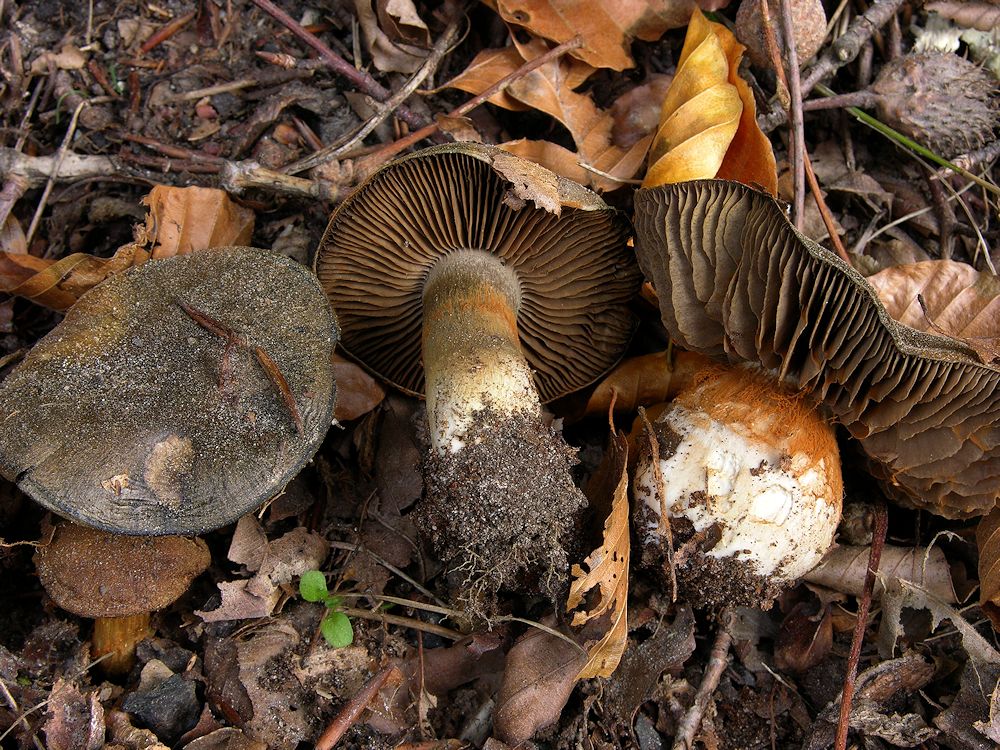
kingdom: Fungi
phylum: Basidiomycota
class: Agaricomycetes
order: Agaricales
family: Cortinariaceae
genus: Cortinarius
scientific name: Cortinarius
